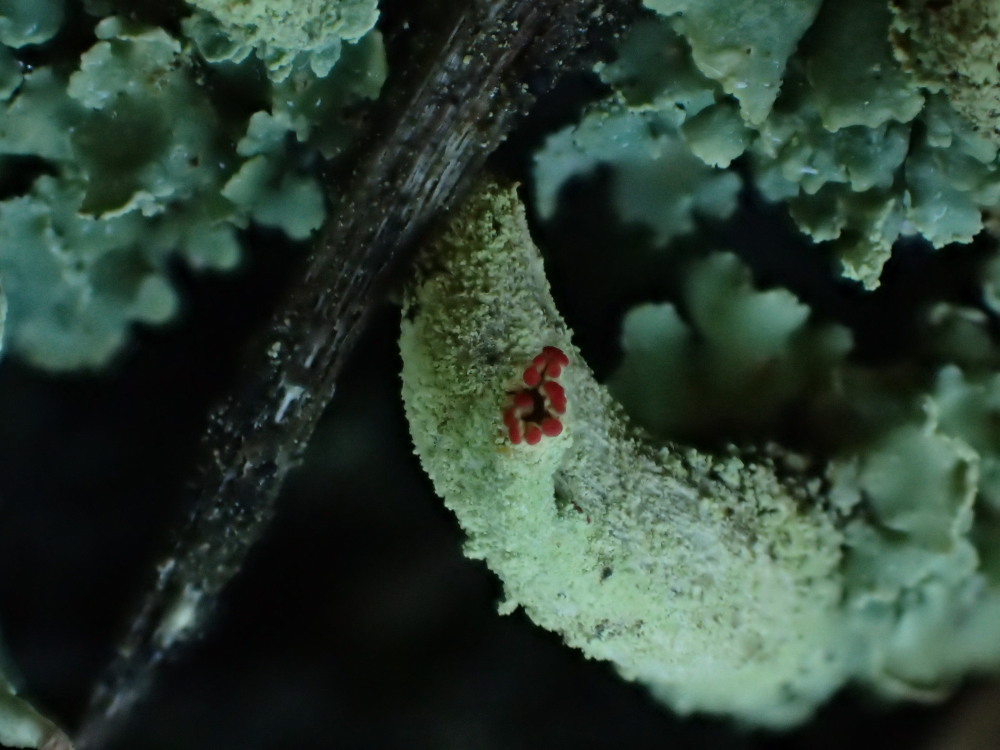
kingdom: Fungi
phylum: Ascomycota
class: Lecanoromycetes
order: Lecanorales
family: Cladoniaceae
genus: Cladonia
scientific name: Cladonia polydactyla
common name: vifte-bægerlav
